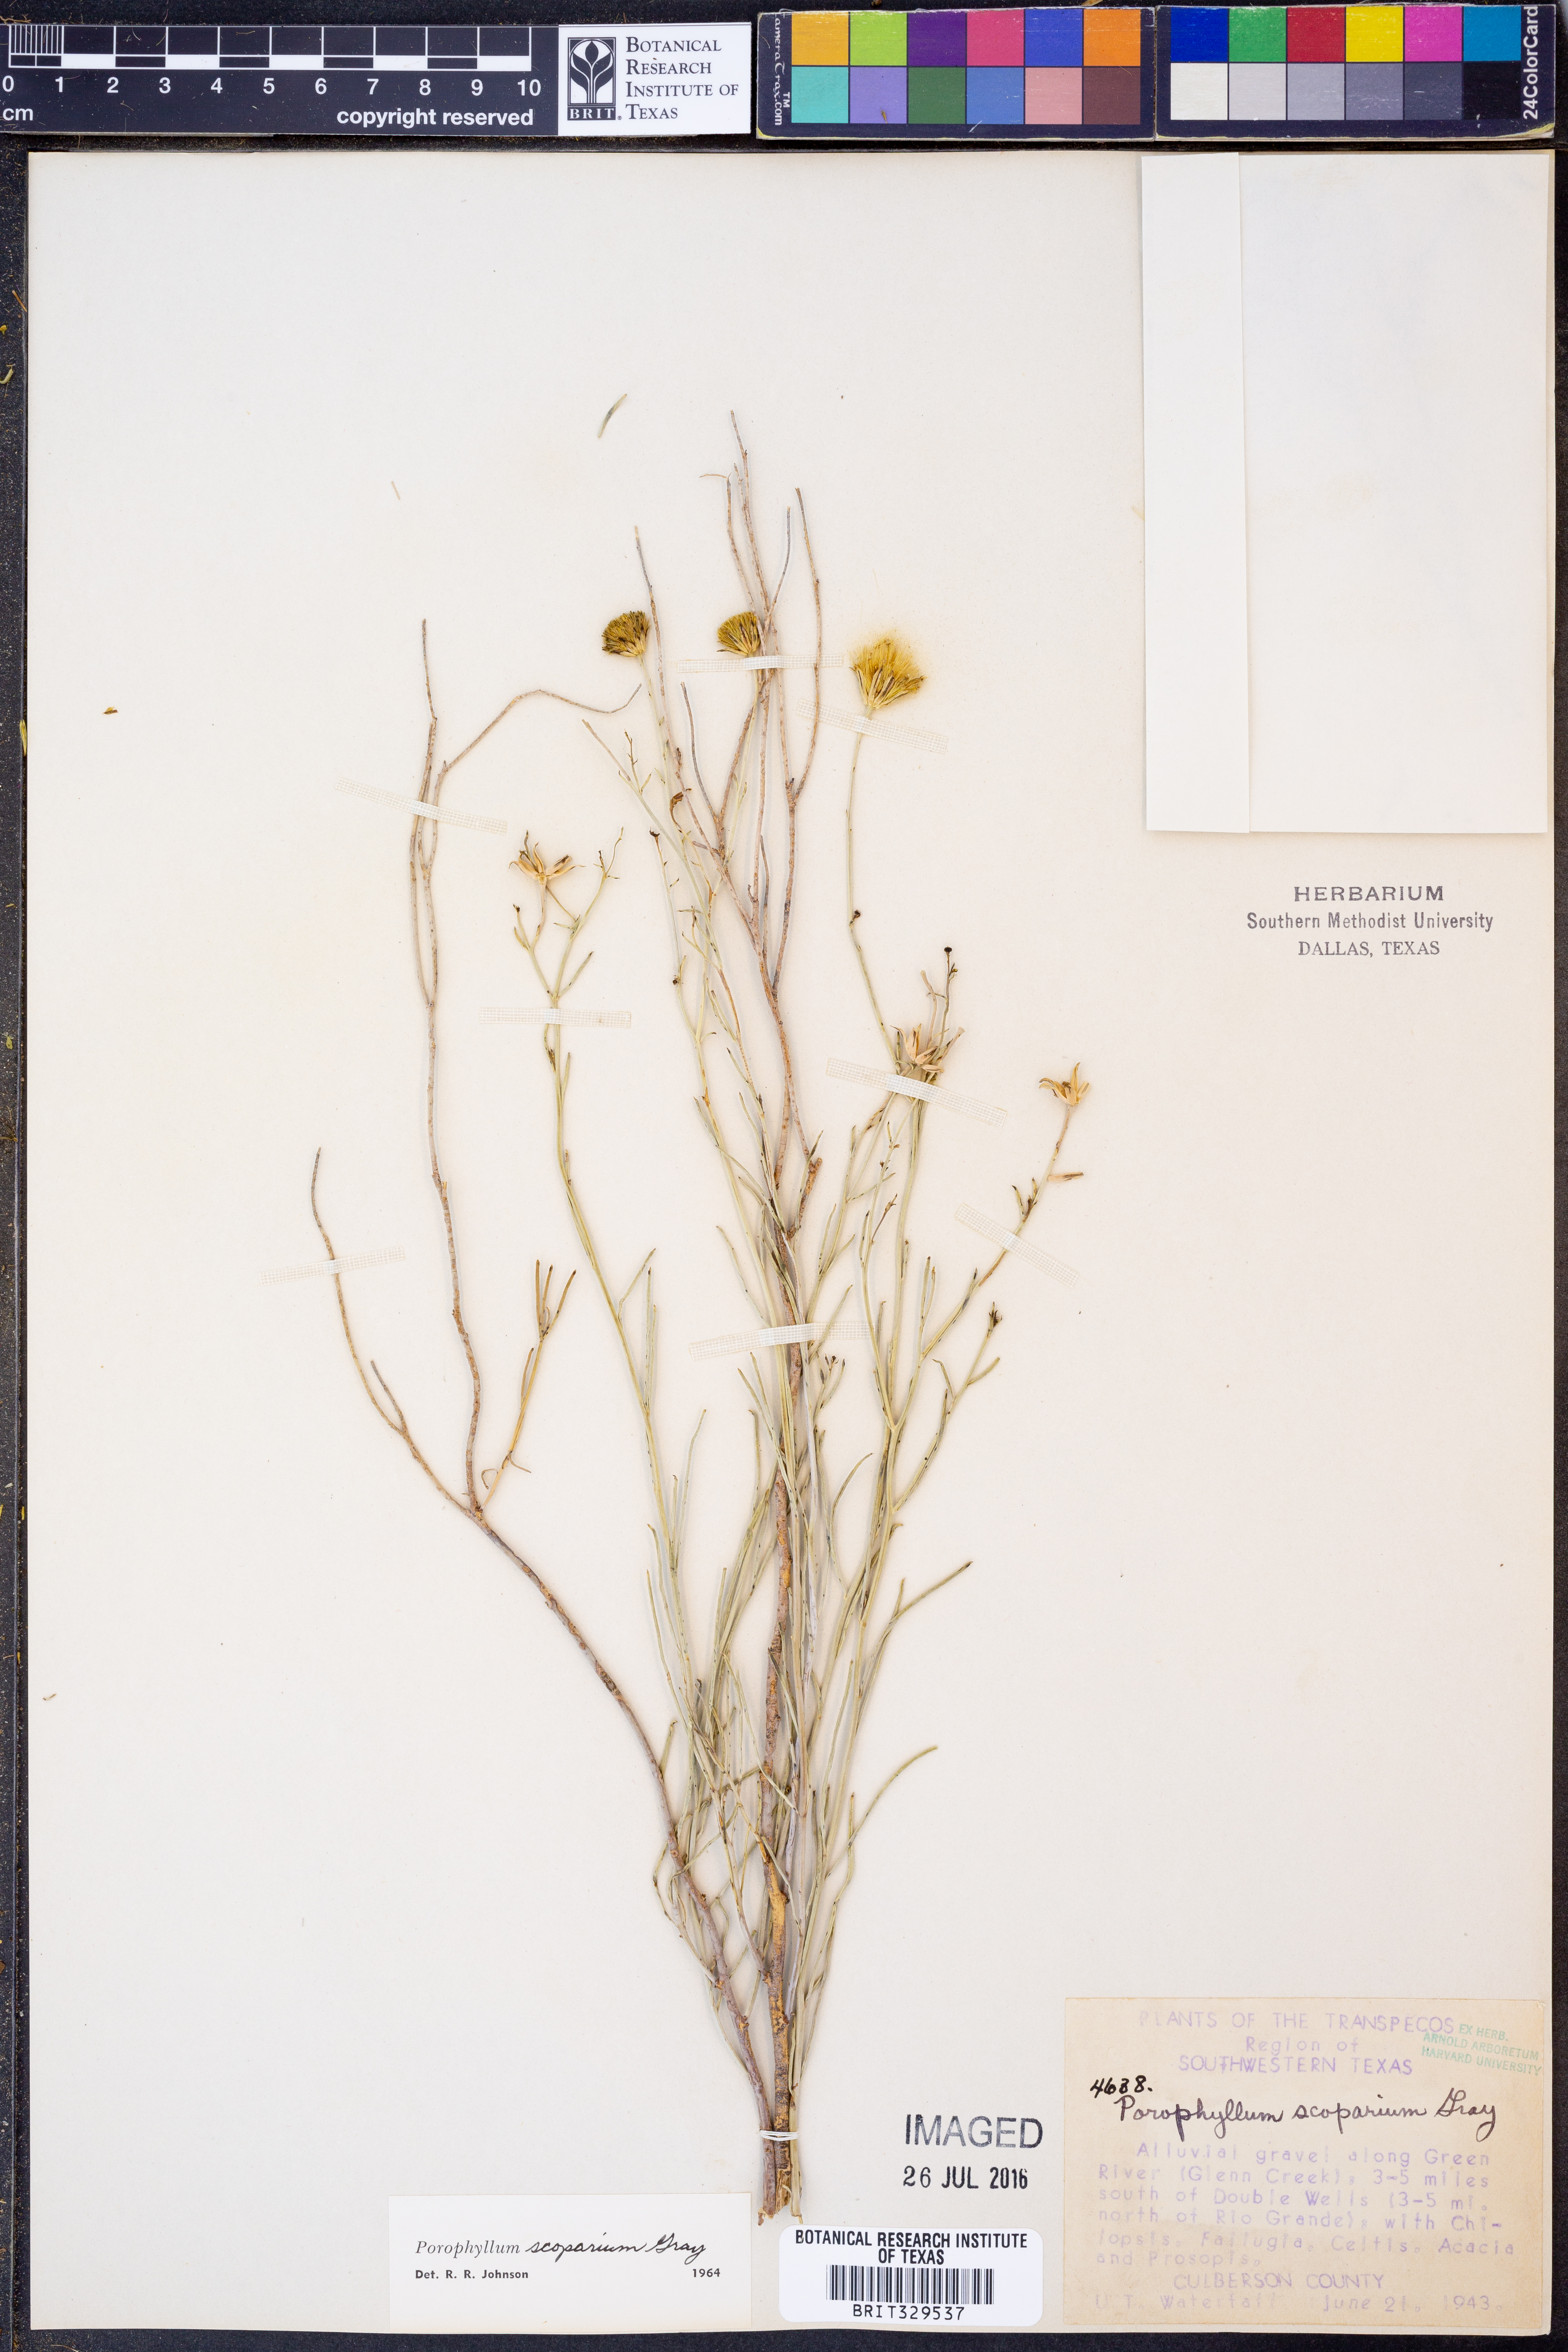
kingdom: Plantae
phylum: Tracheophyta
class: Magnoliopsida
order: Asterales
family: Asteraceae
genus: Porophyllum
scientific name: Porophyllum scoparium
